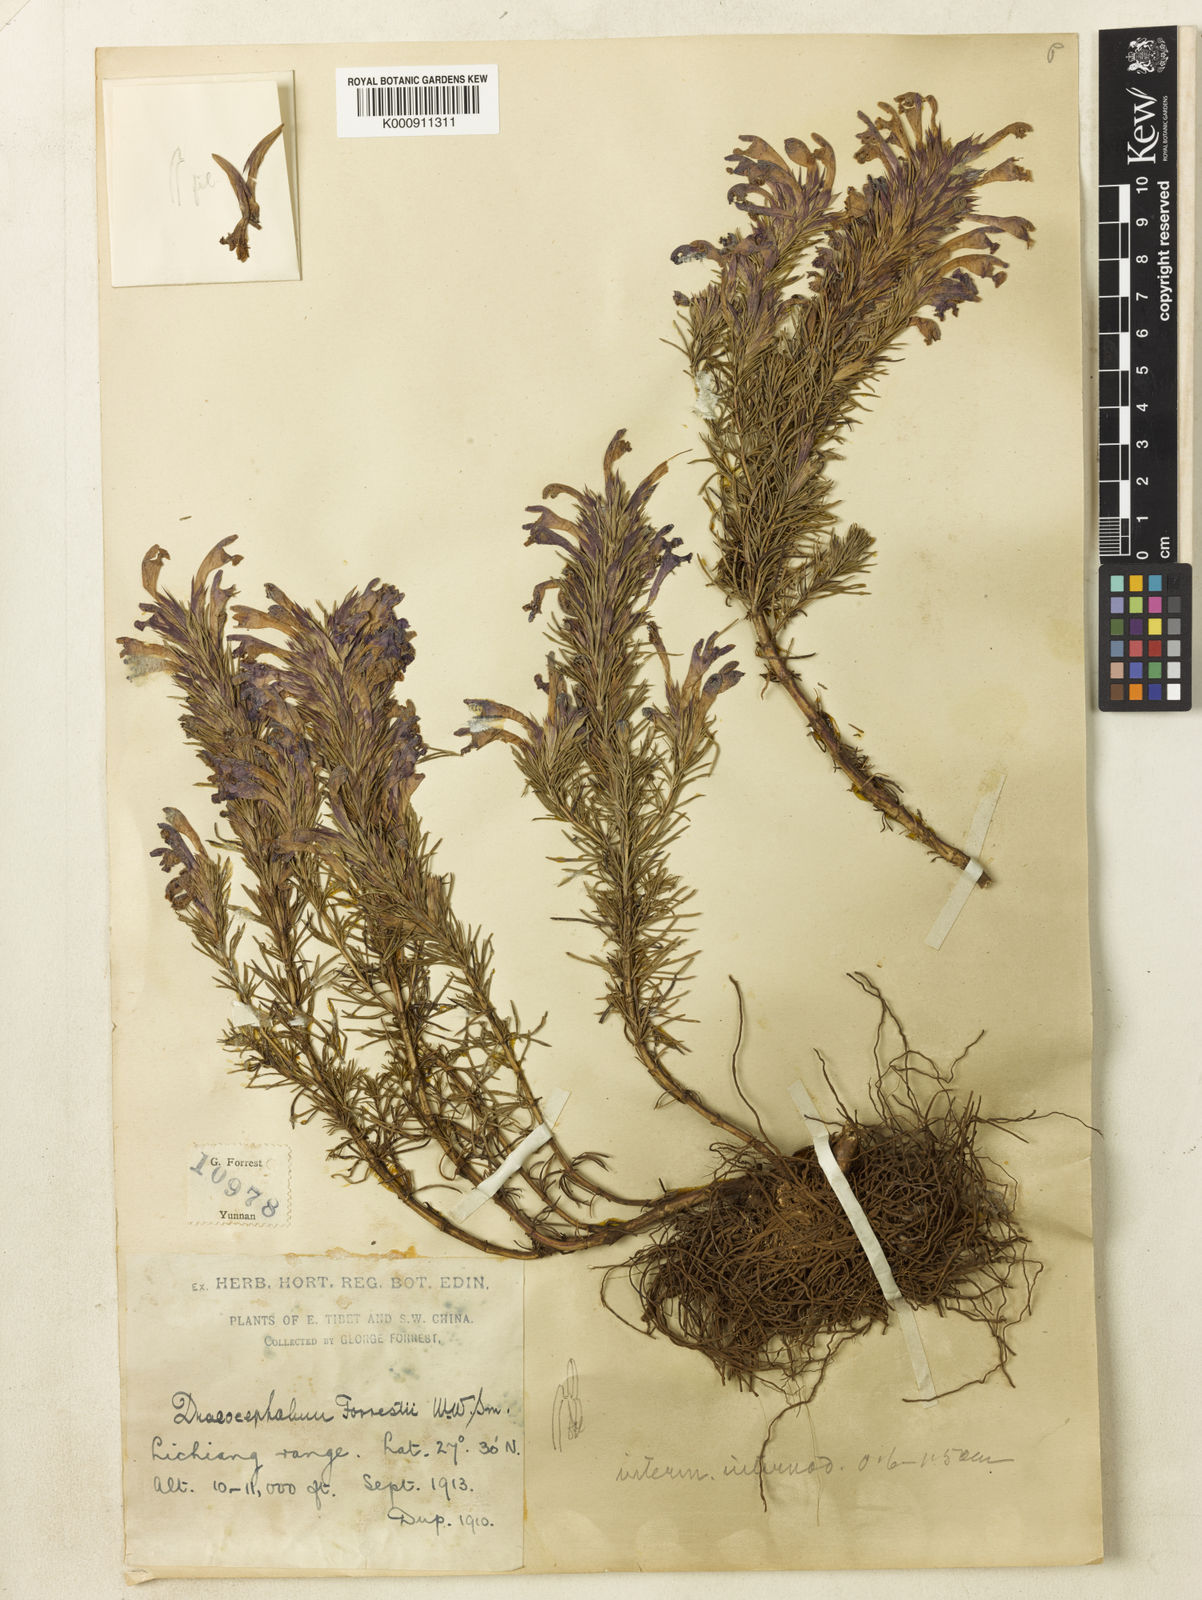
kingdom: Plantae
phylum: Tracheophyta
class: Magnoliopsida
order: Lamiales
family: Lamiaceae
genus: Dracocephalum
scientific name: Dracocephalum forrestii
